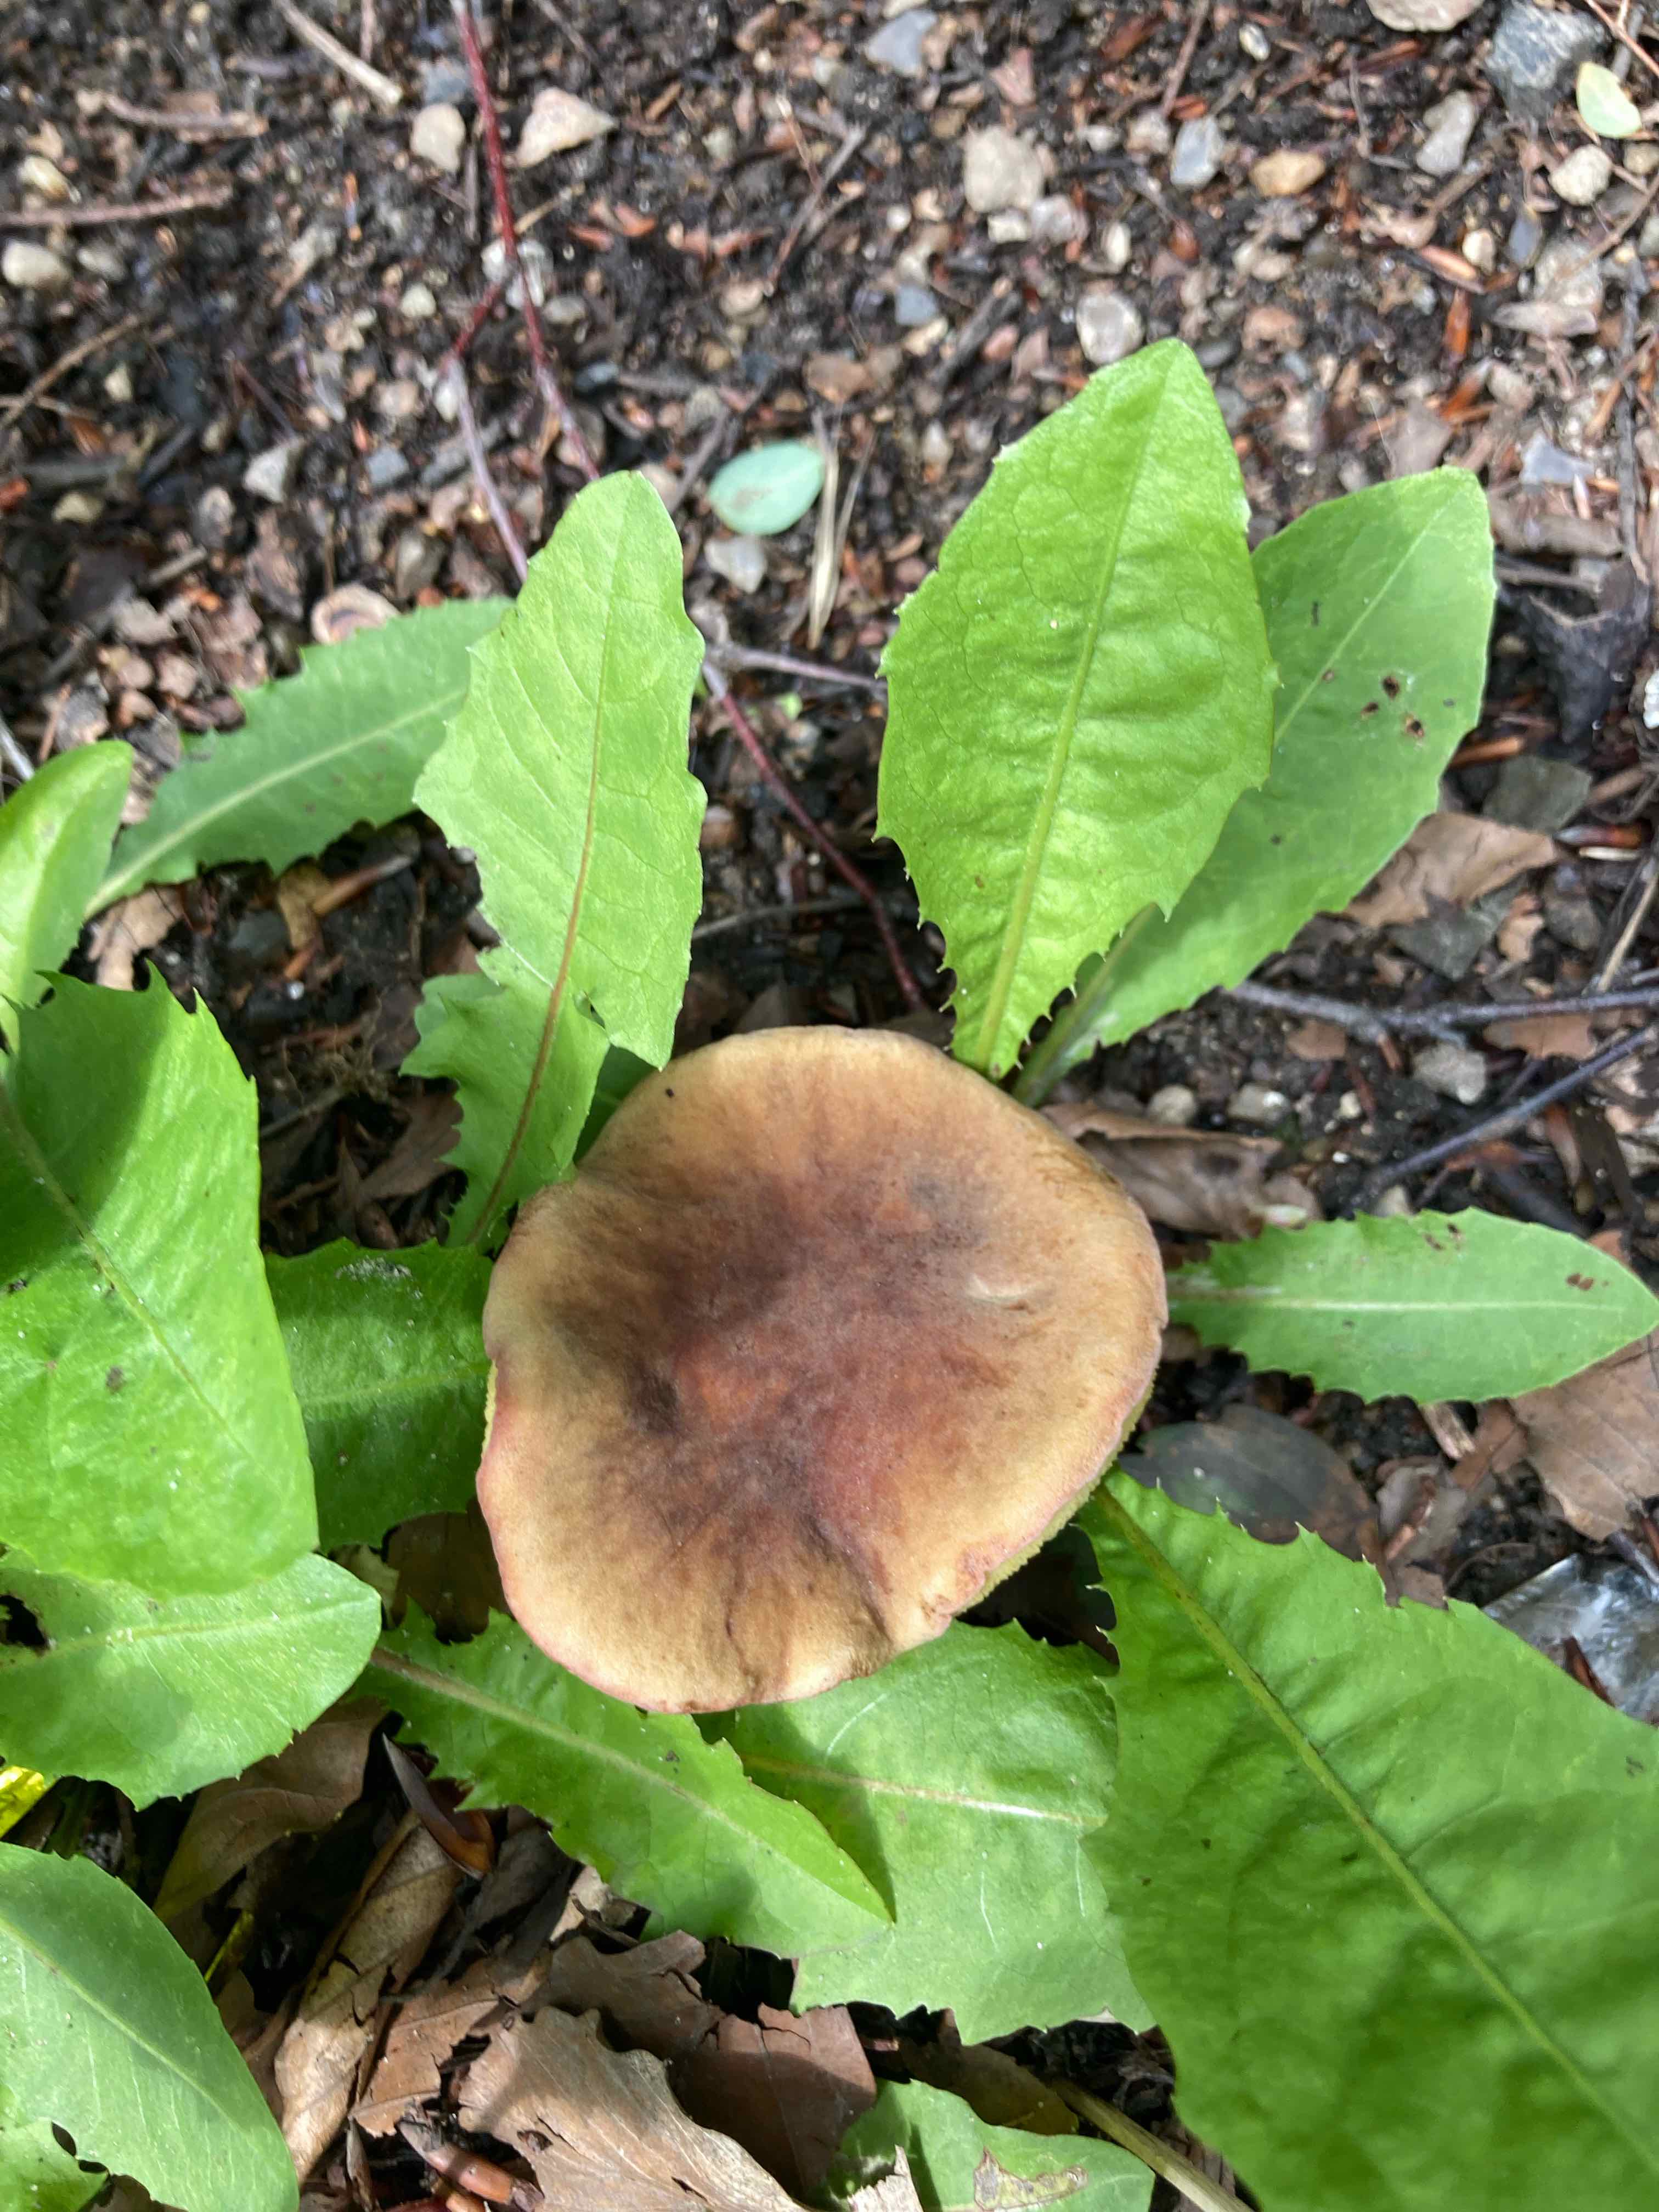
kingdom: Fungi
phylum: Basidiomycota
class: Agaricomycetes
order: Boletales
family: Boletaceae
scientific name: Boletaceae
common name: rørhatfamilien
